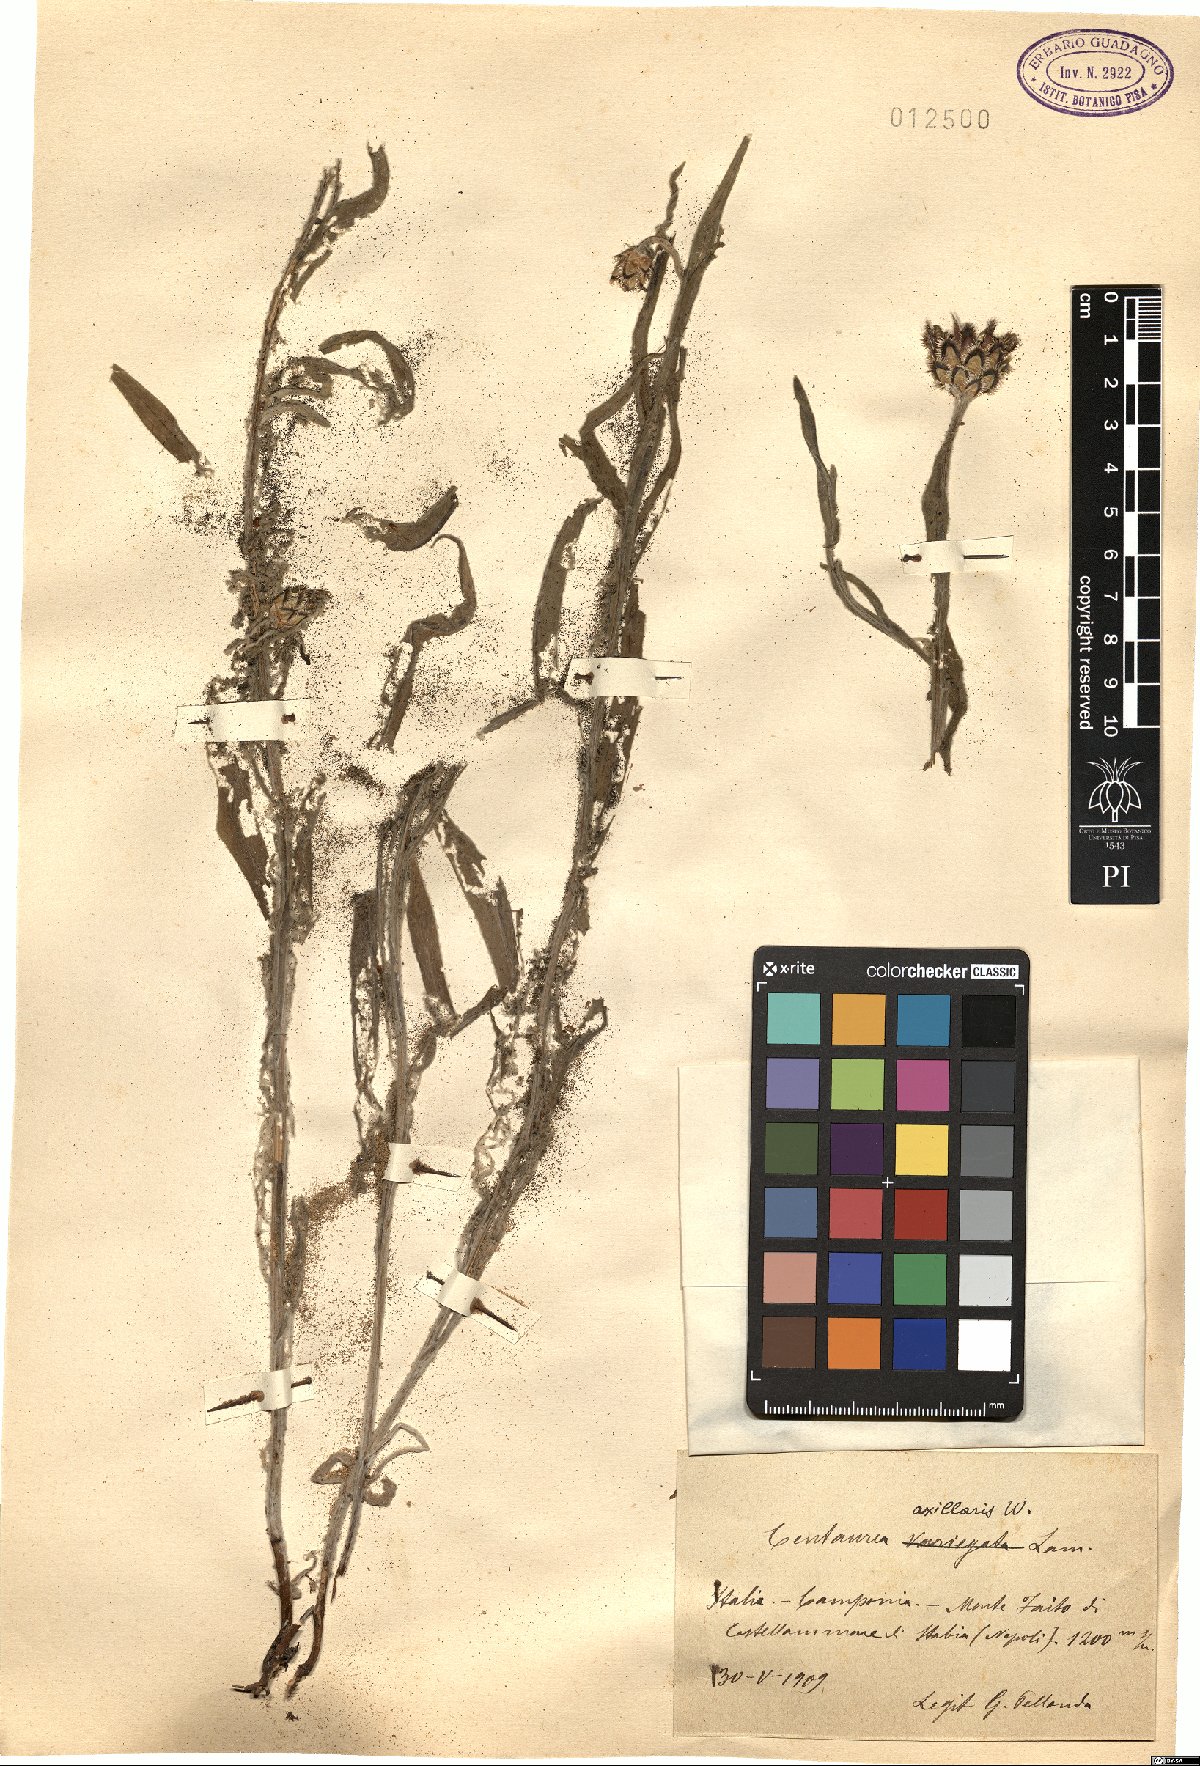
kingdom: Plantae
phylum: Tracheophyta
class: Magnoliopsida
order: Asterales
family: Asteraceae
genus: Centaurea
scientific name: Centaurea triumfettii
